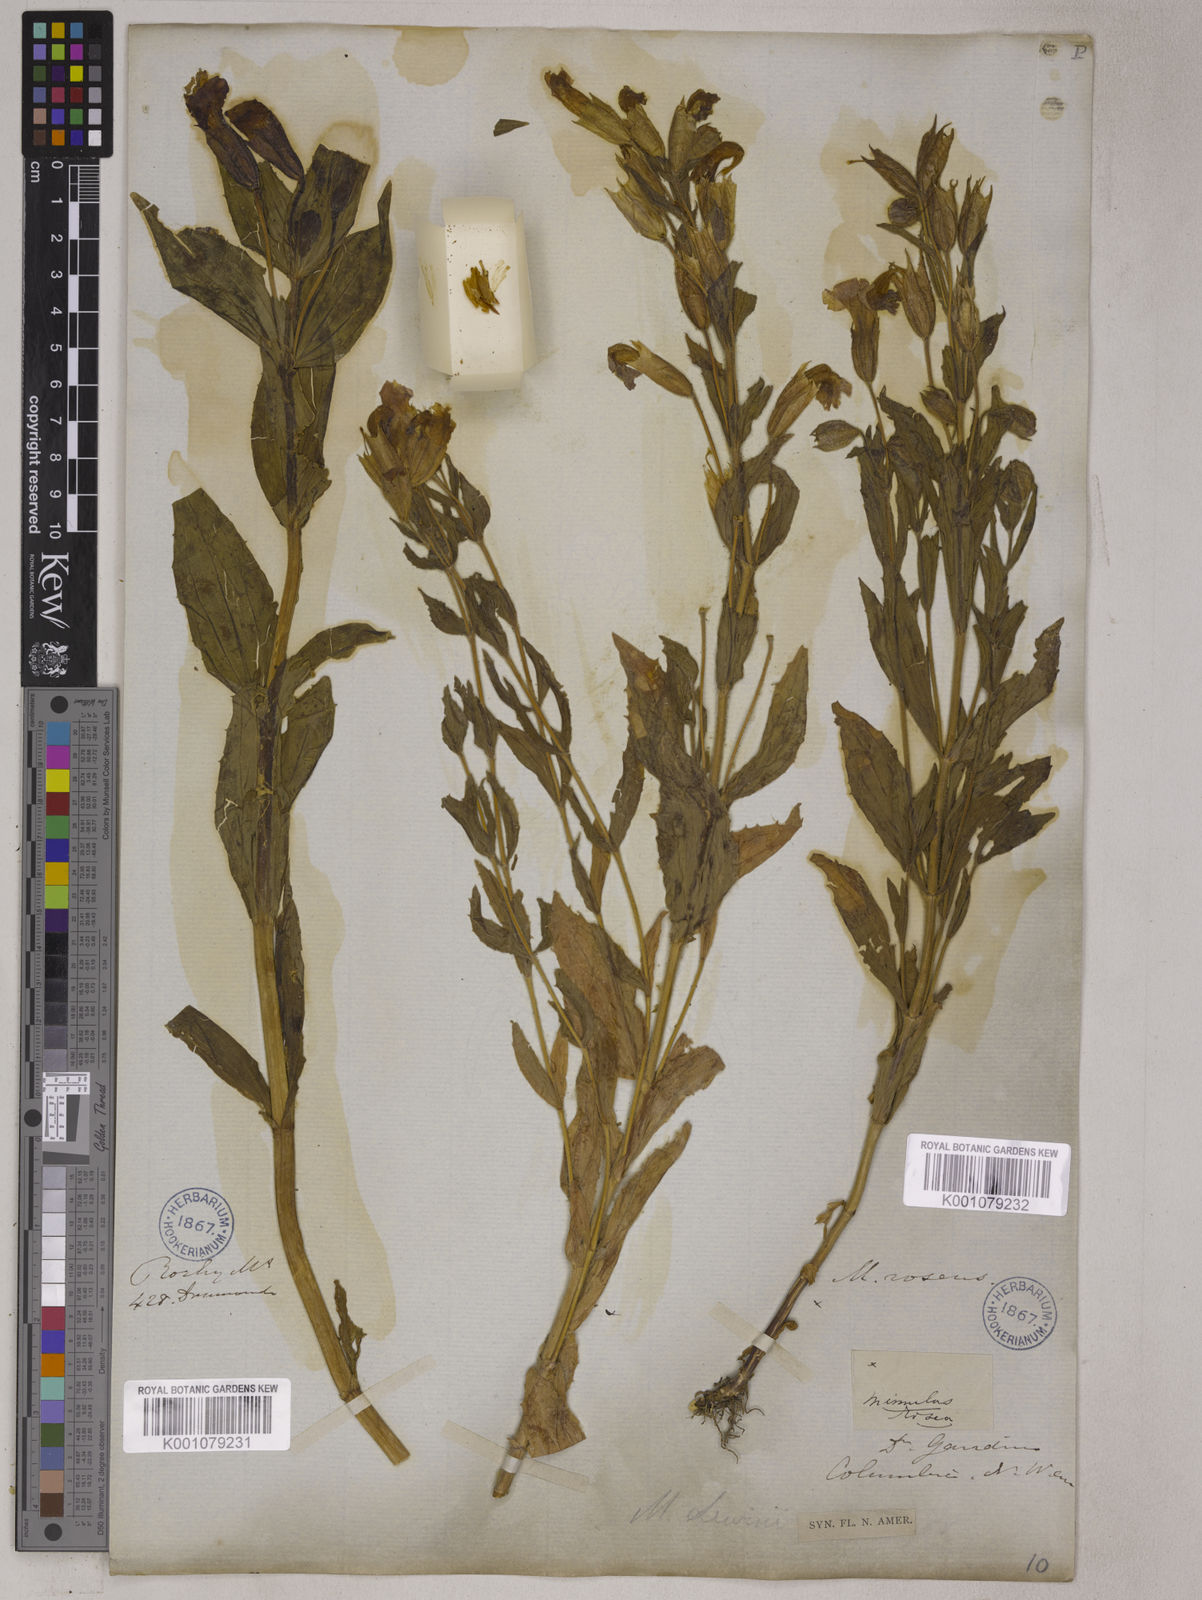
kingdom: Plantae
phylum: Tracheophyta
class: Magnoliopsida
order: Lamiales
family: Phrymaceae
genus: Erythranthe
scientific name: Erythranthe lewisii
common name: Lewis's monkey-flower
